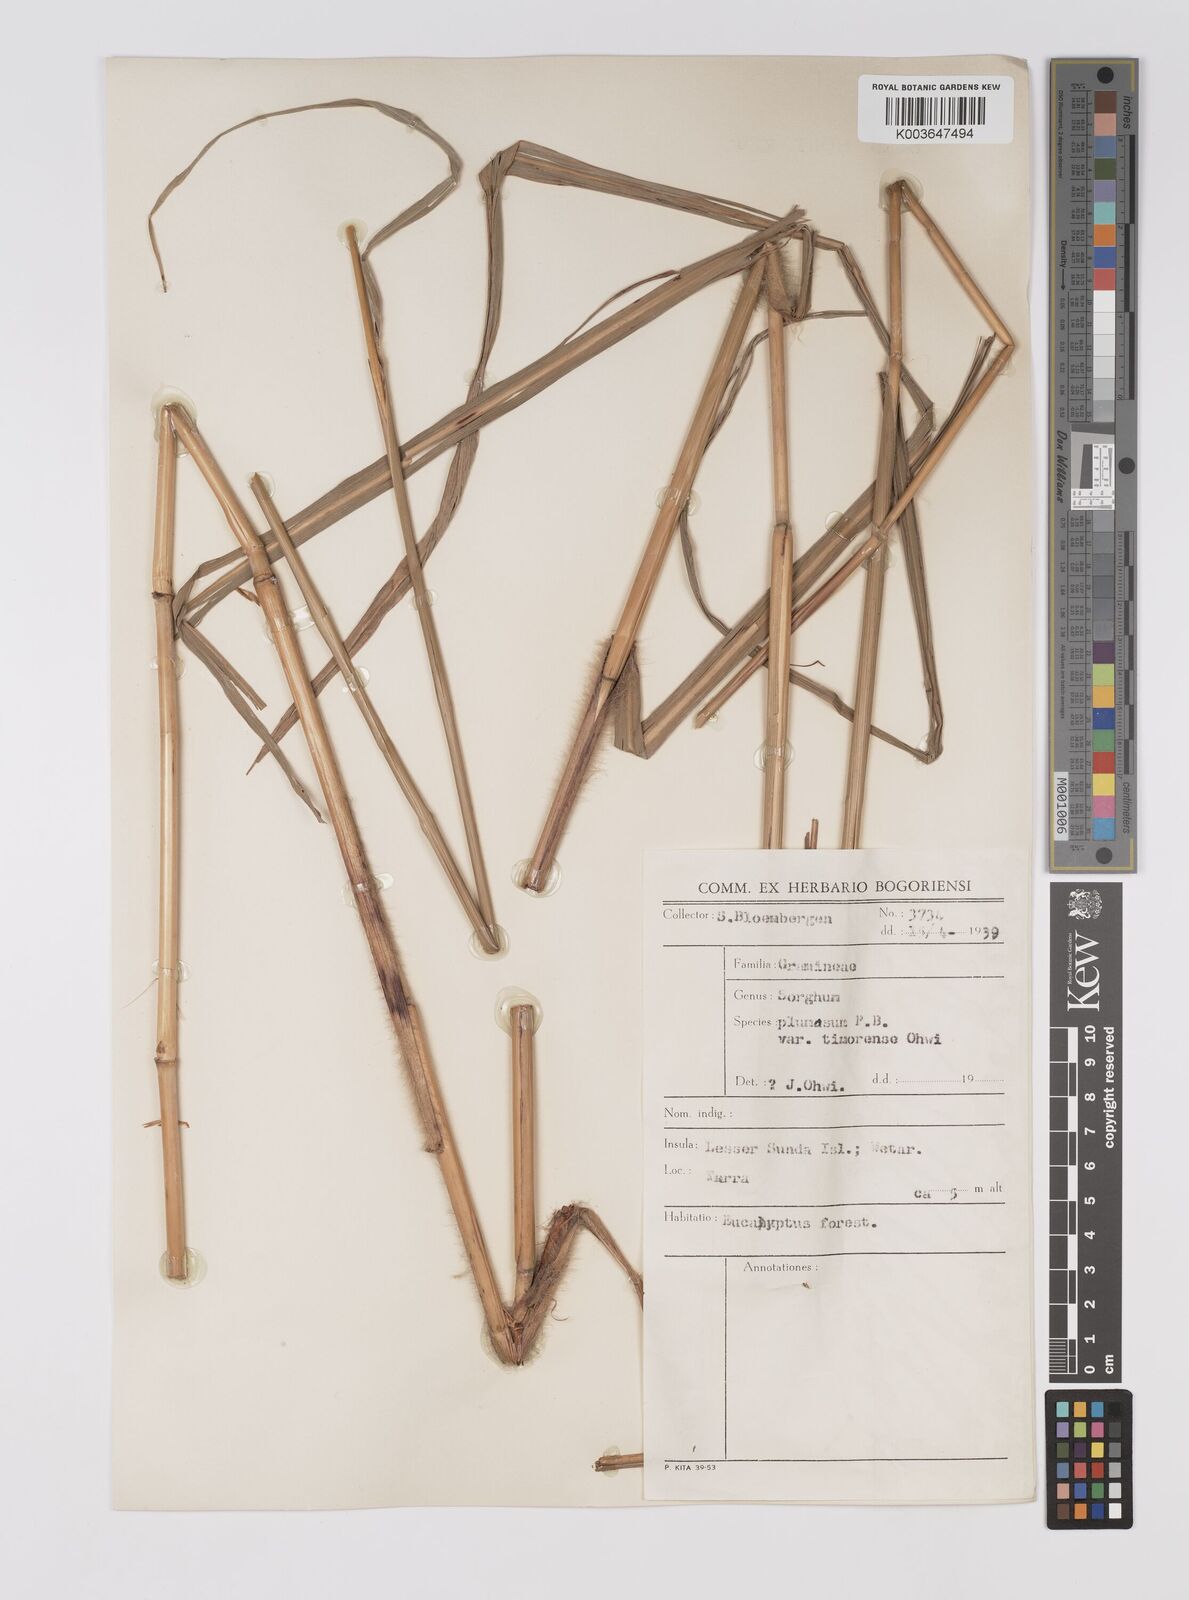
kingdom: Plantae
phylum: Tracheophyta
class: Liliopsida
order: Poales
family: Poaceae
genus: Sarga
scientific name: Sarga plumosa
